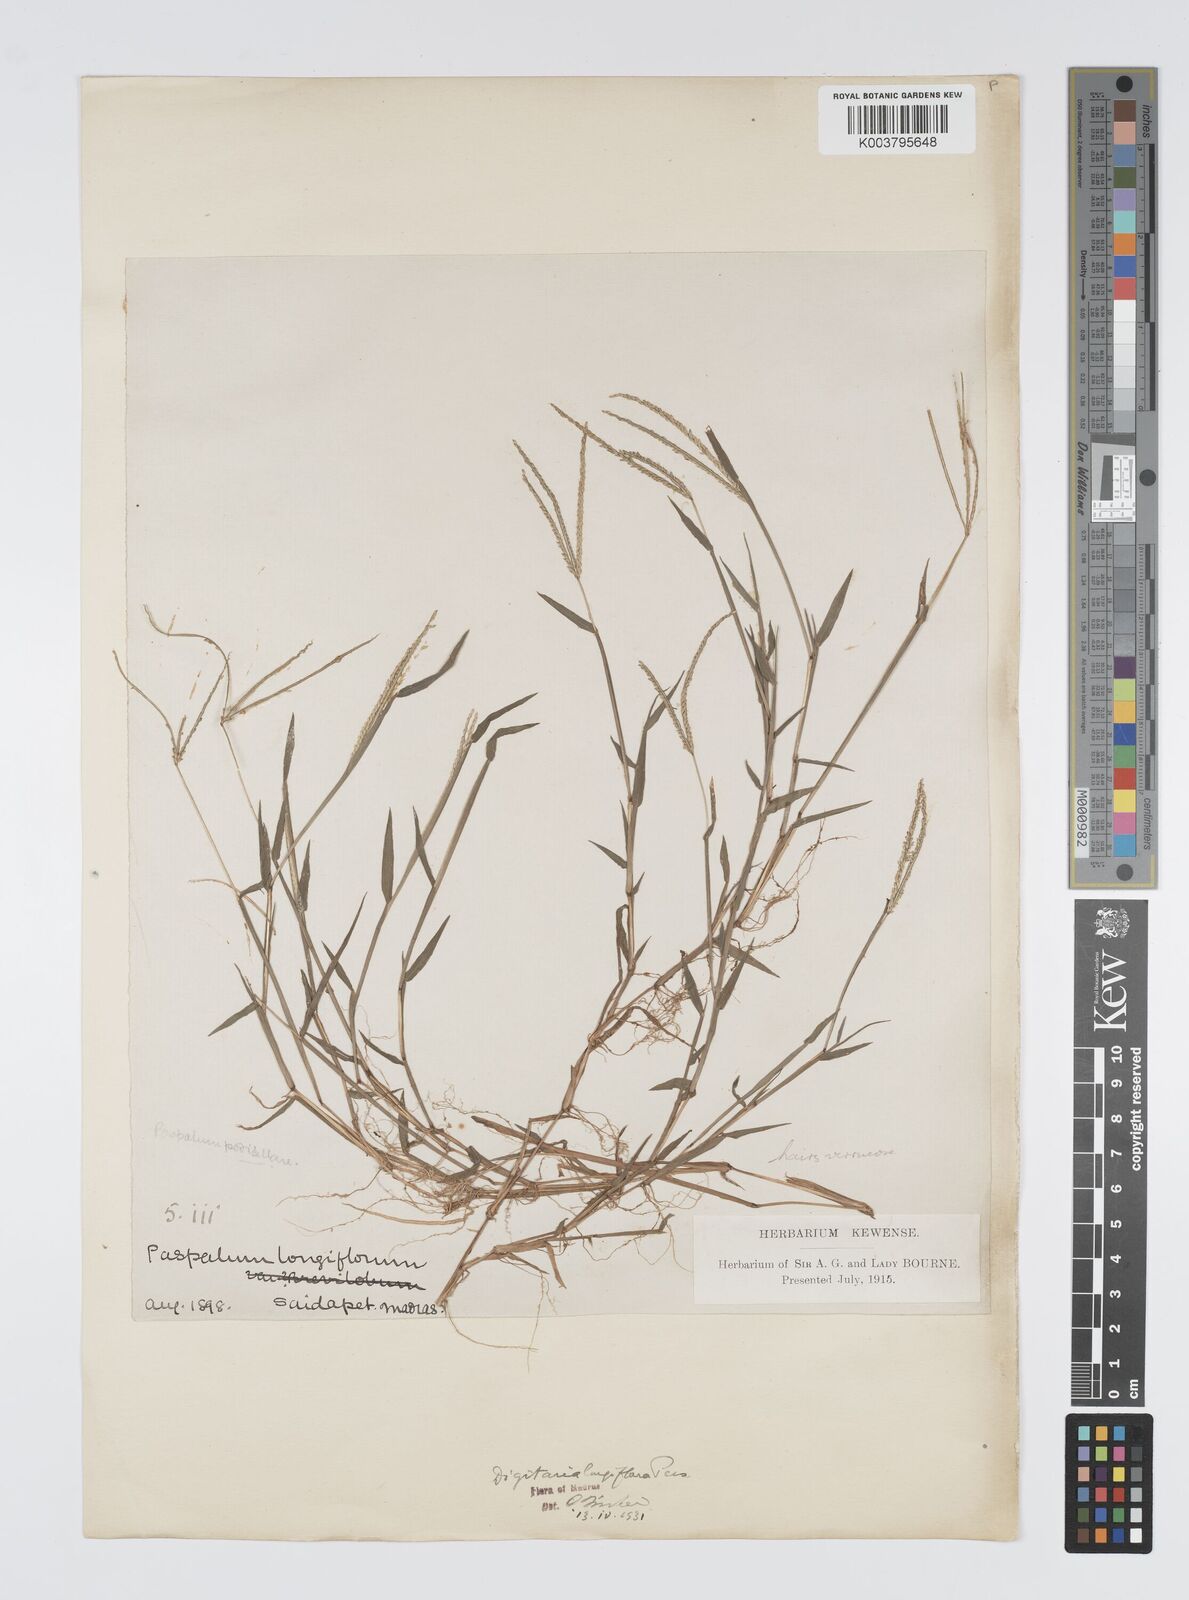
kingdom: Plantae
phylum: Tracheophyta
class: Liliopsida
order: Poales
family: Poaceae
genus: Digitaria
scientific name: Digitaria longiflora
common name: Wire crabgrass
